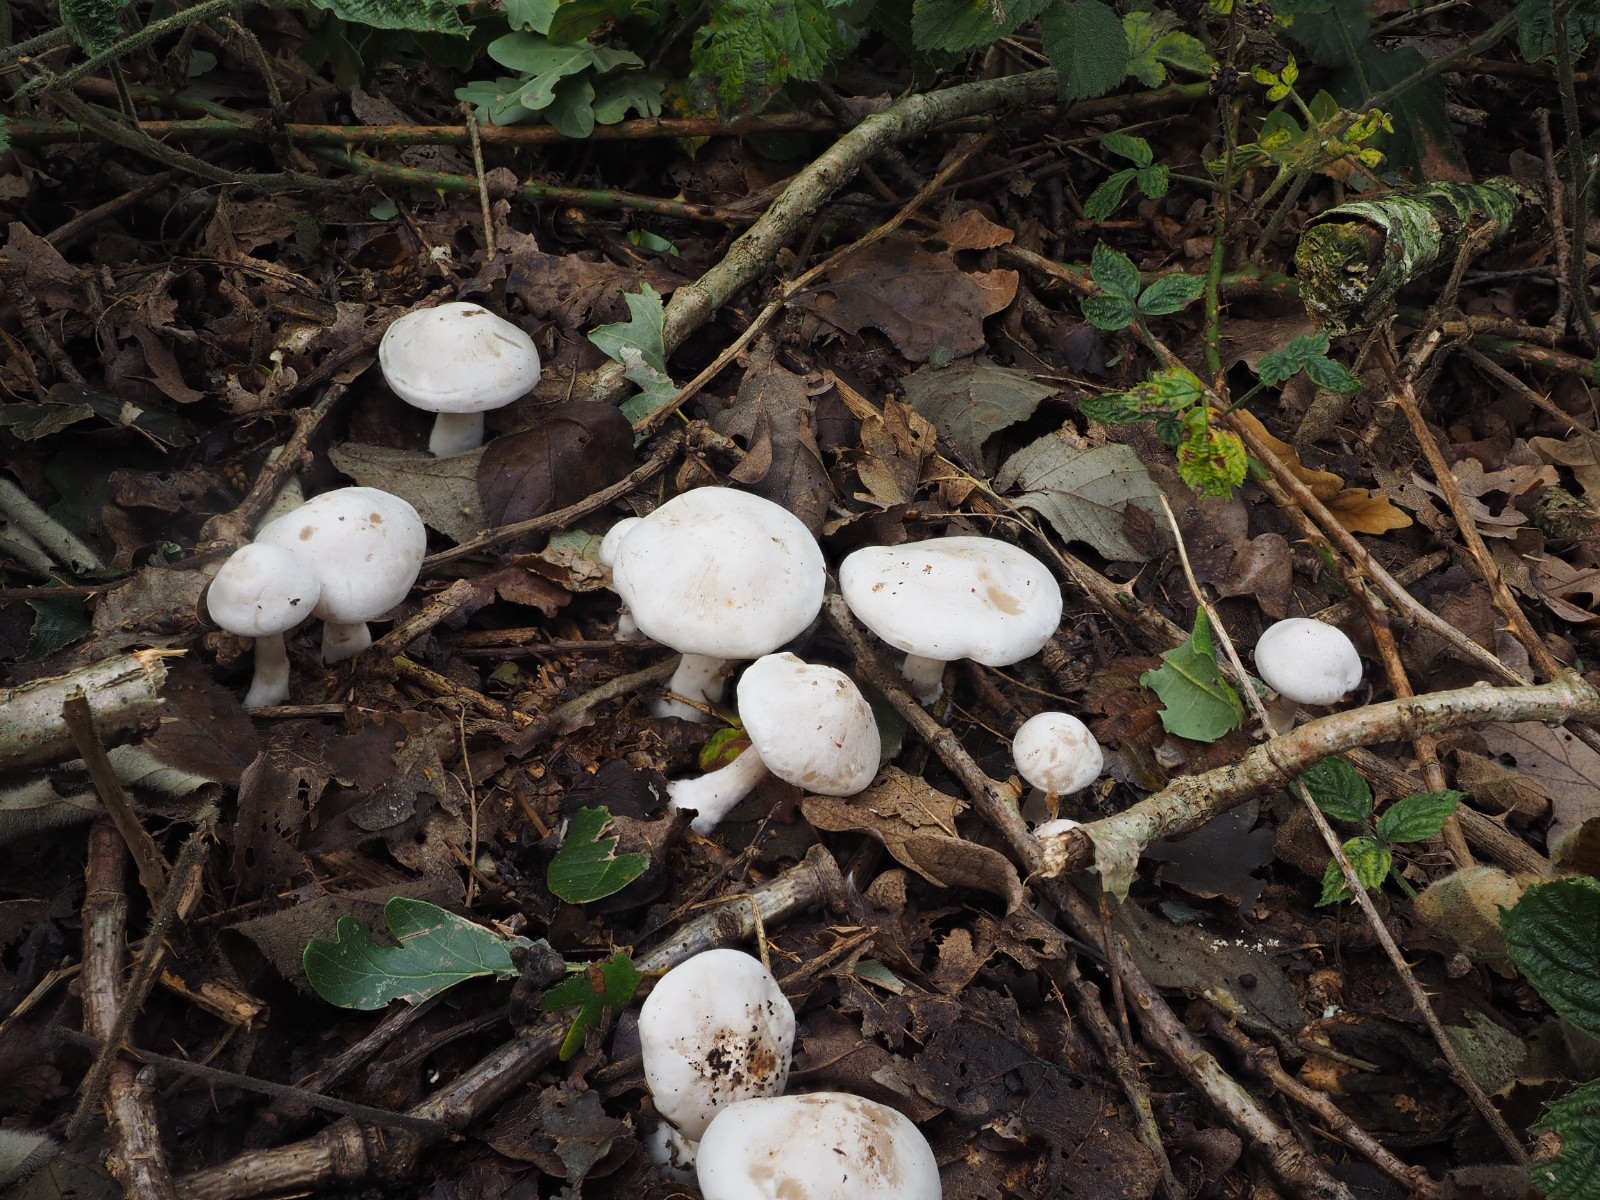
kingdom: Fungi
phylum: Basidiomycota
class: Agaricomycetes
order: Agaricales
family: Tricholomataceae
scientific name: Tricholomataceae
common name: ridderhatfamilien
